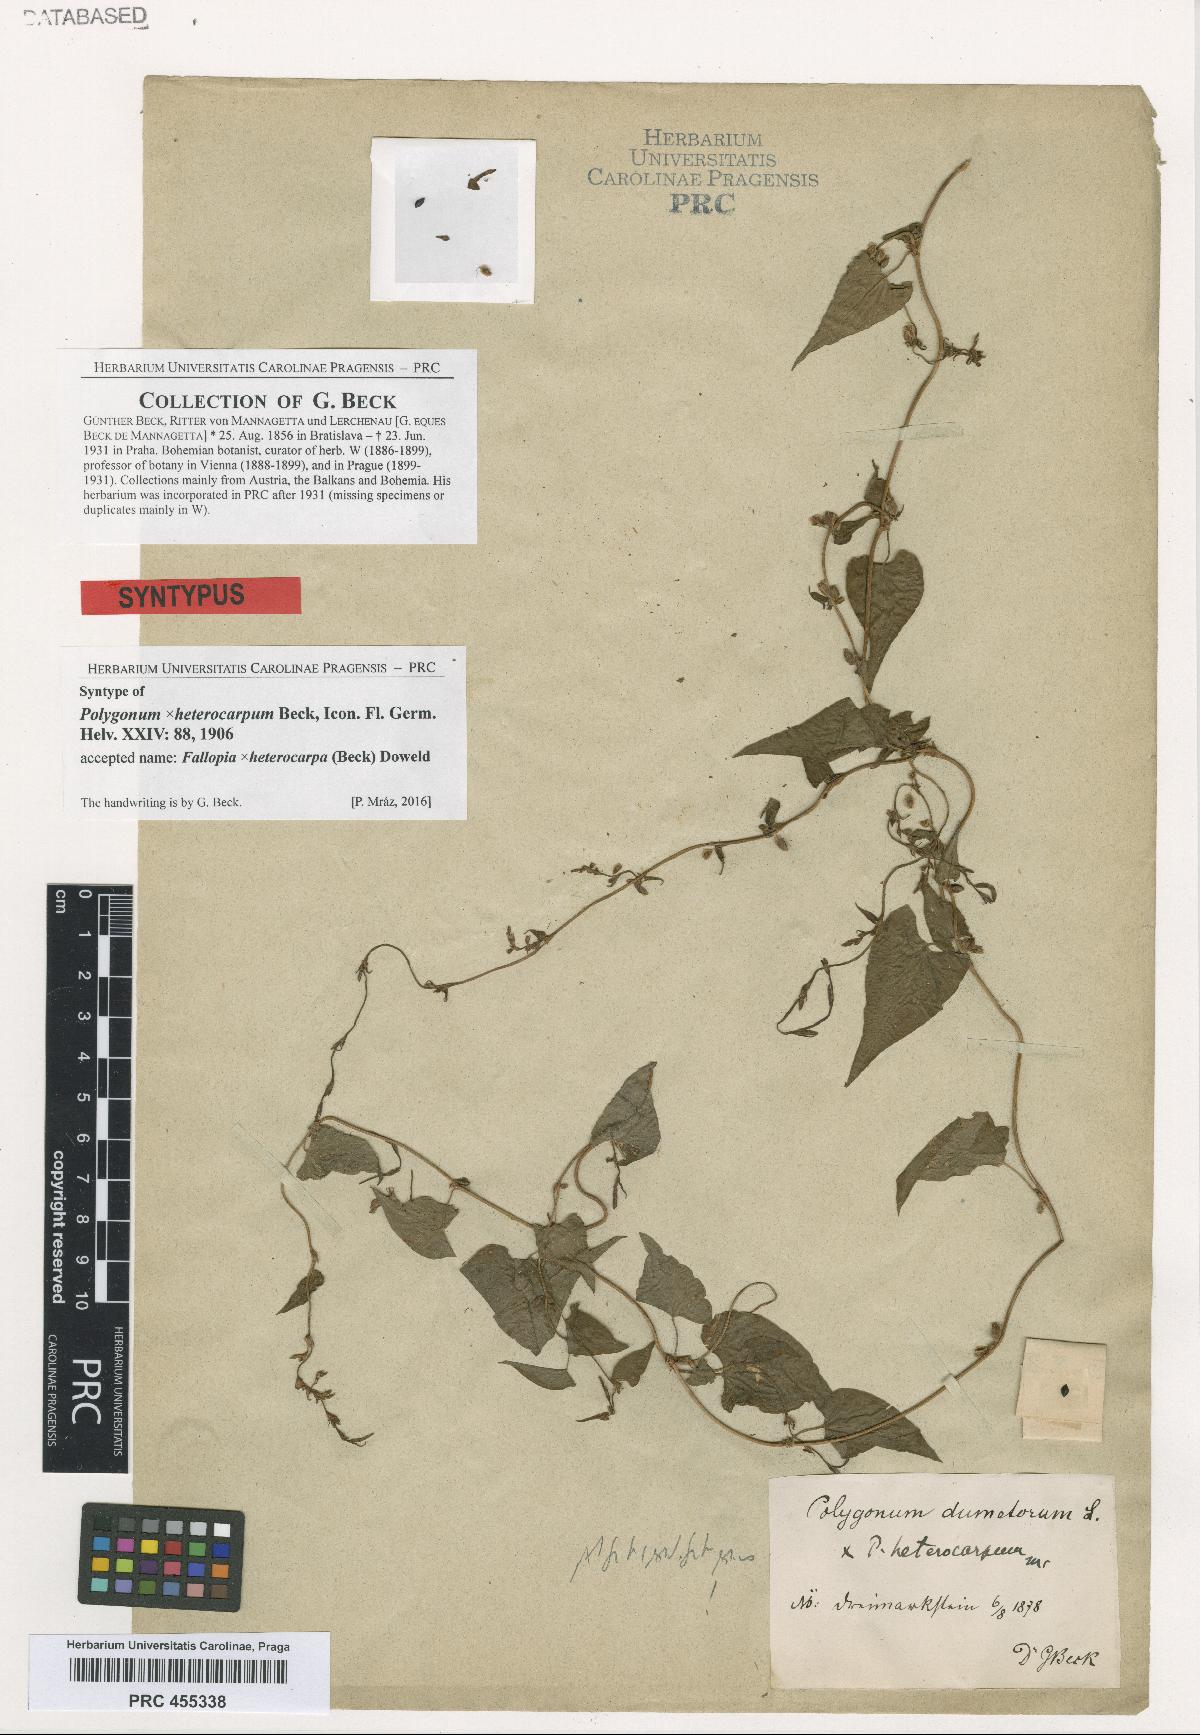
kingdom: Plantae
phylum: Tracheophyta
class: Magnoliopsida
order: Caryophyllales
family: Polygonaceae
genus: Fallopia
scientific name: Fallopia heterocarpa
